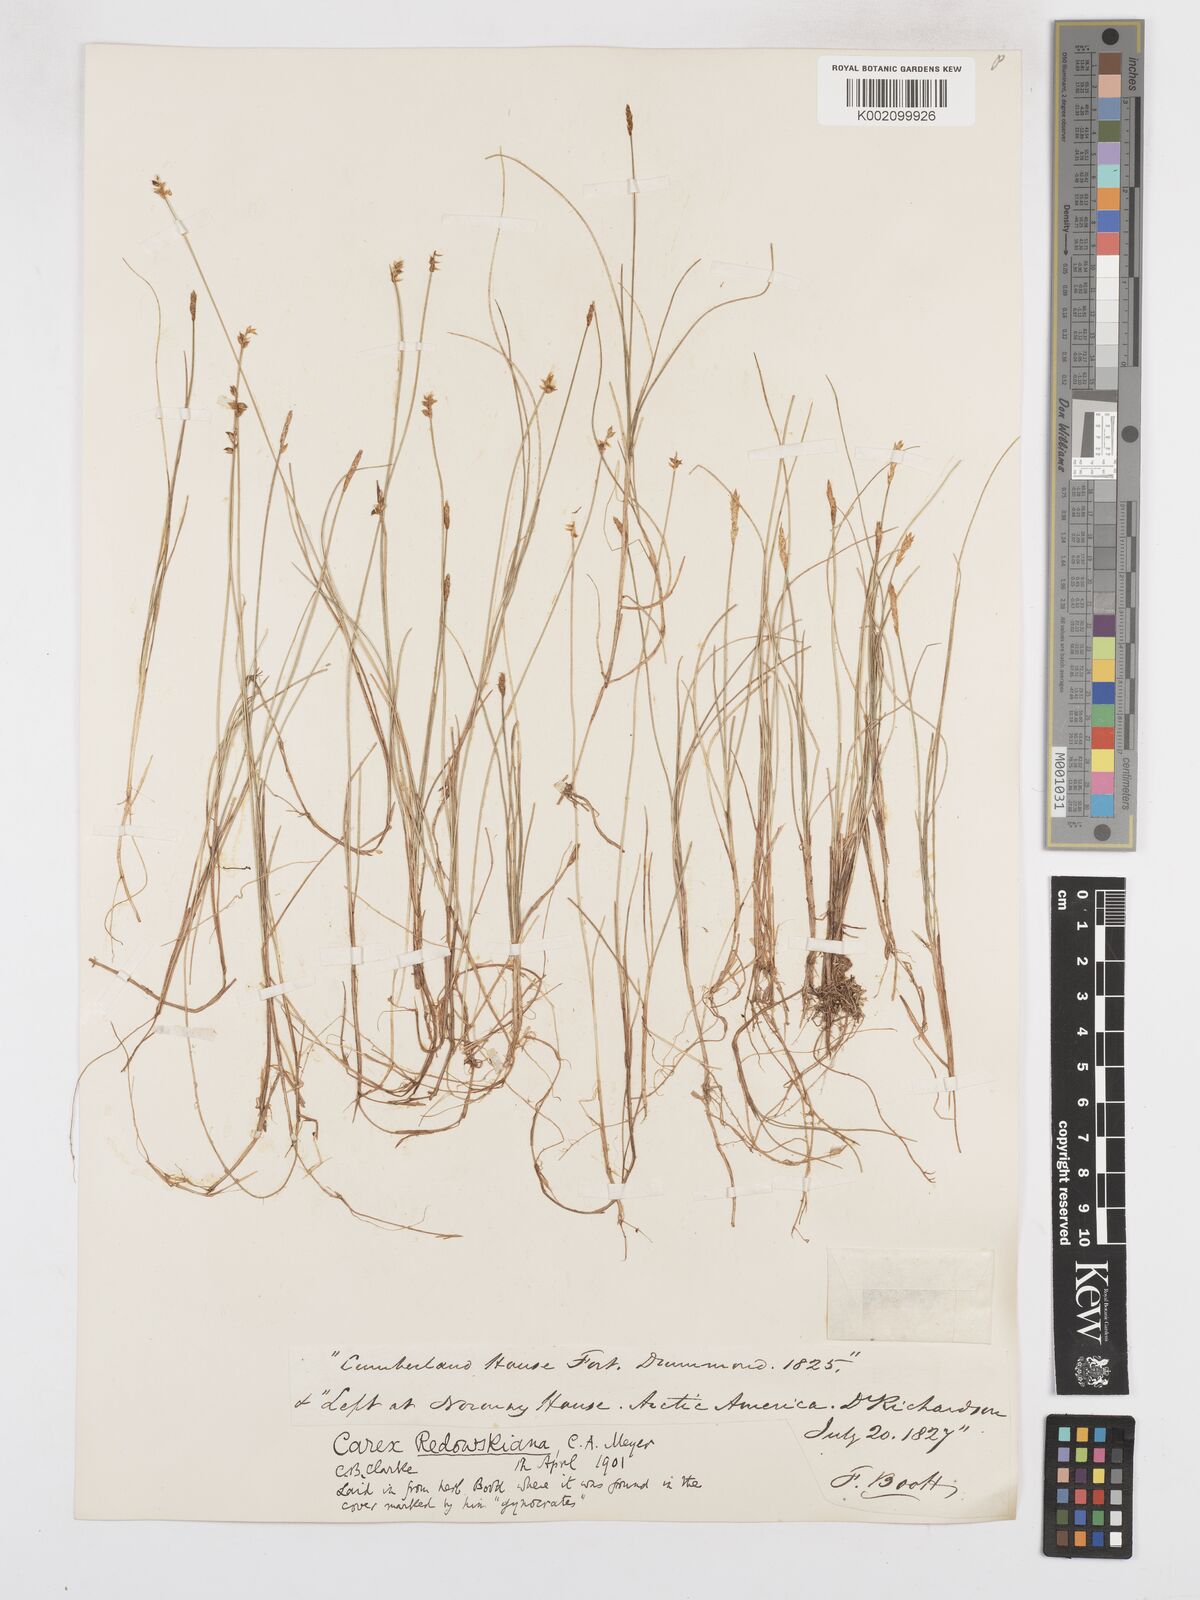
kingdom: Plantae
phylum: Tracheophyta
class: Liliopsida
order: Poales
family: Cyperaceae
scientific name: Cyperaceae
